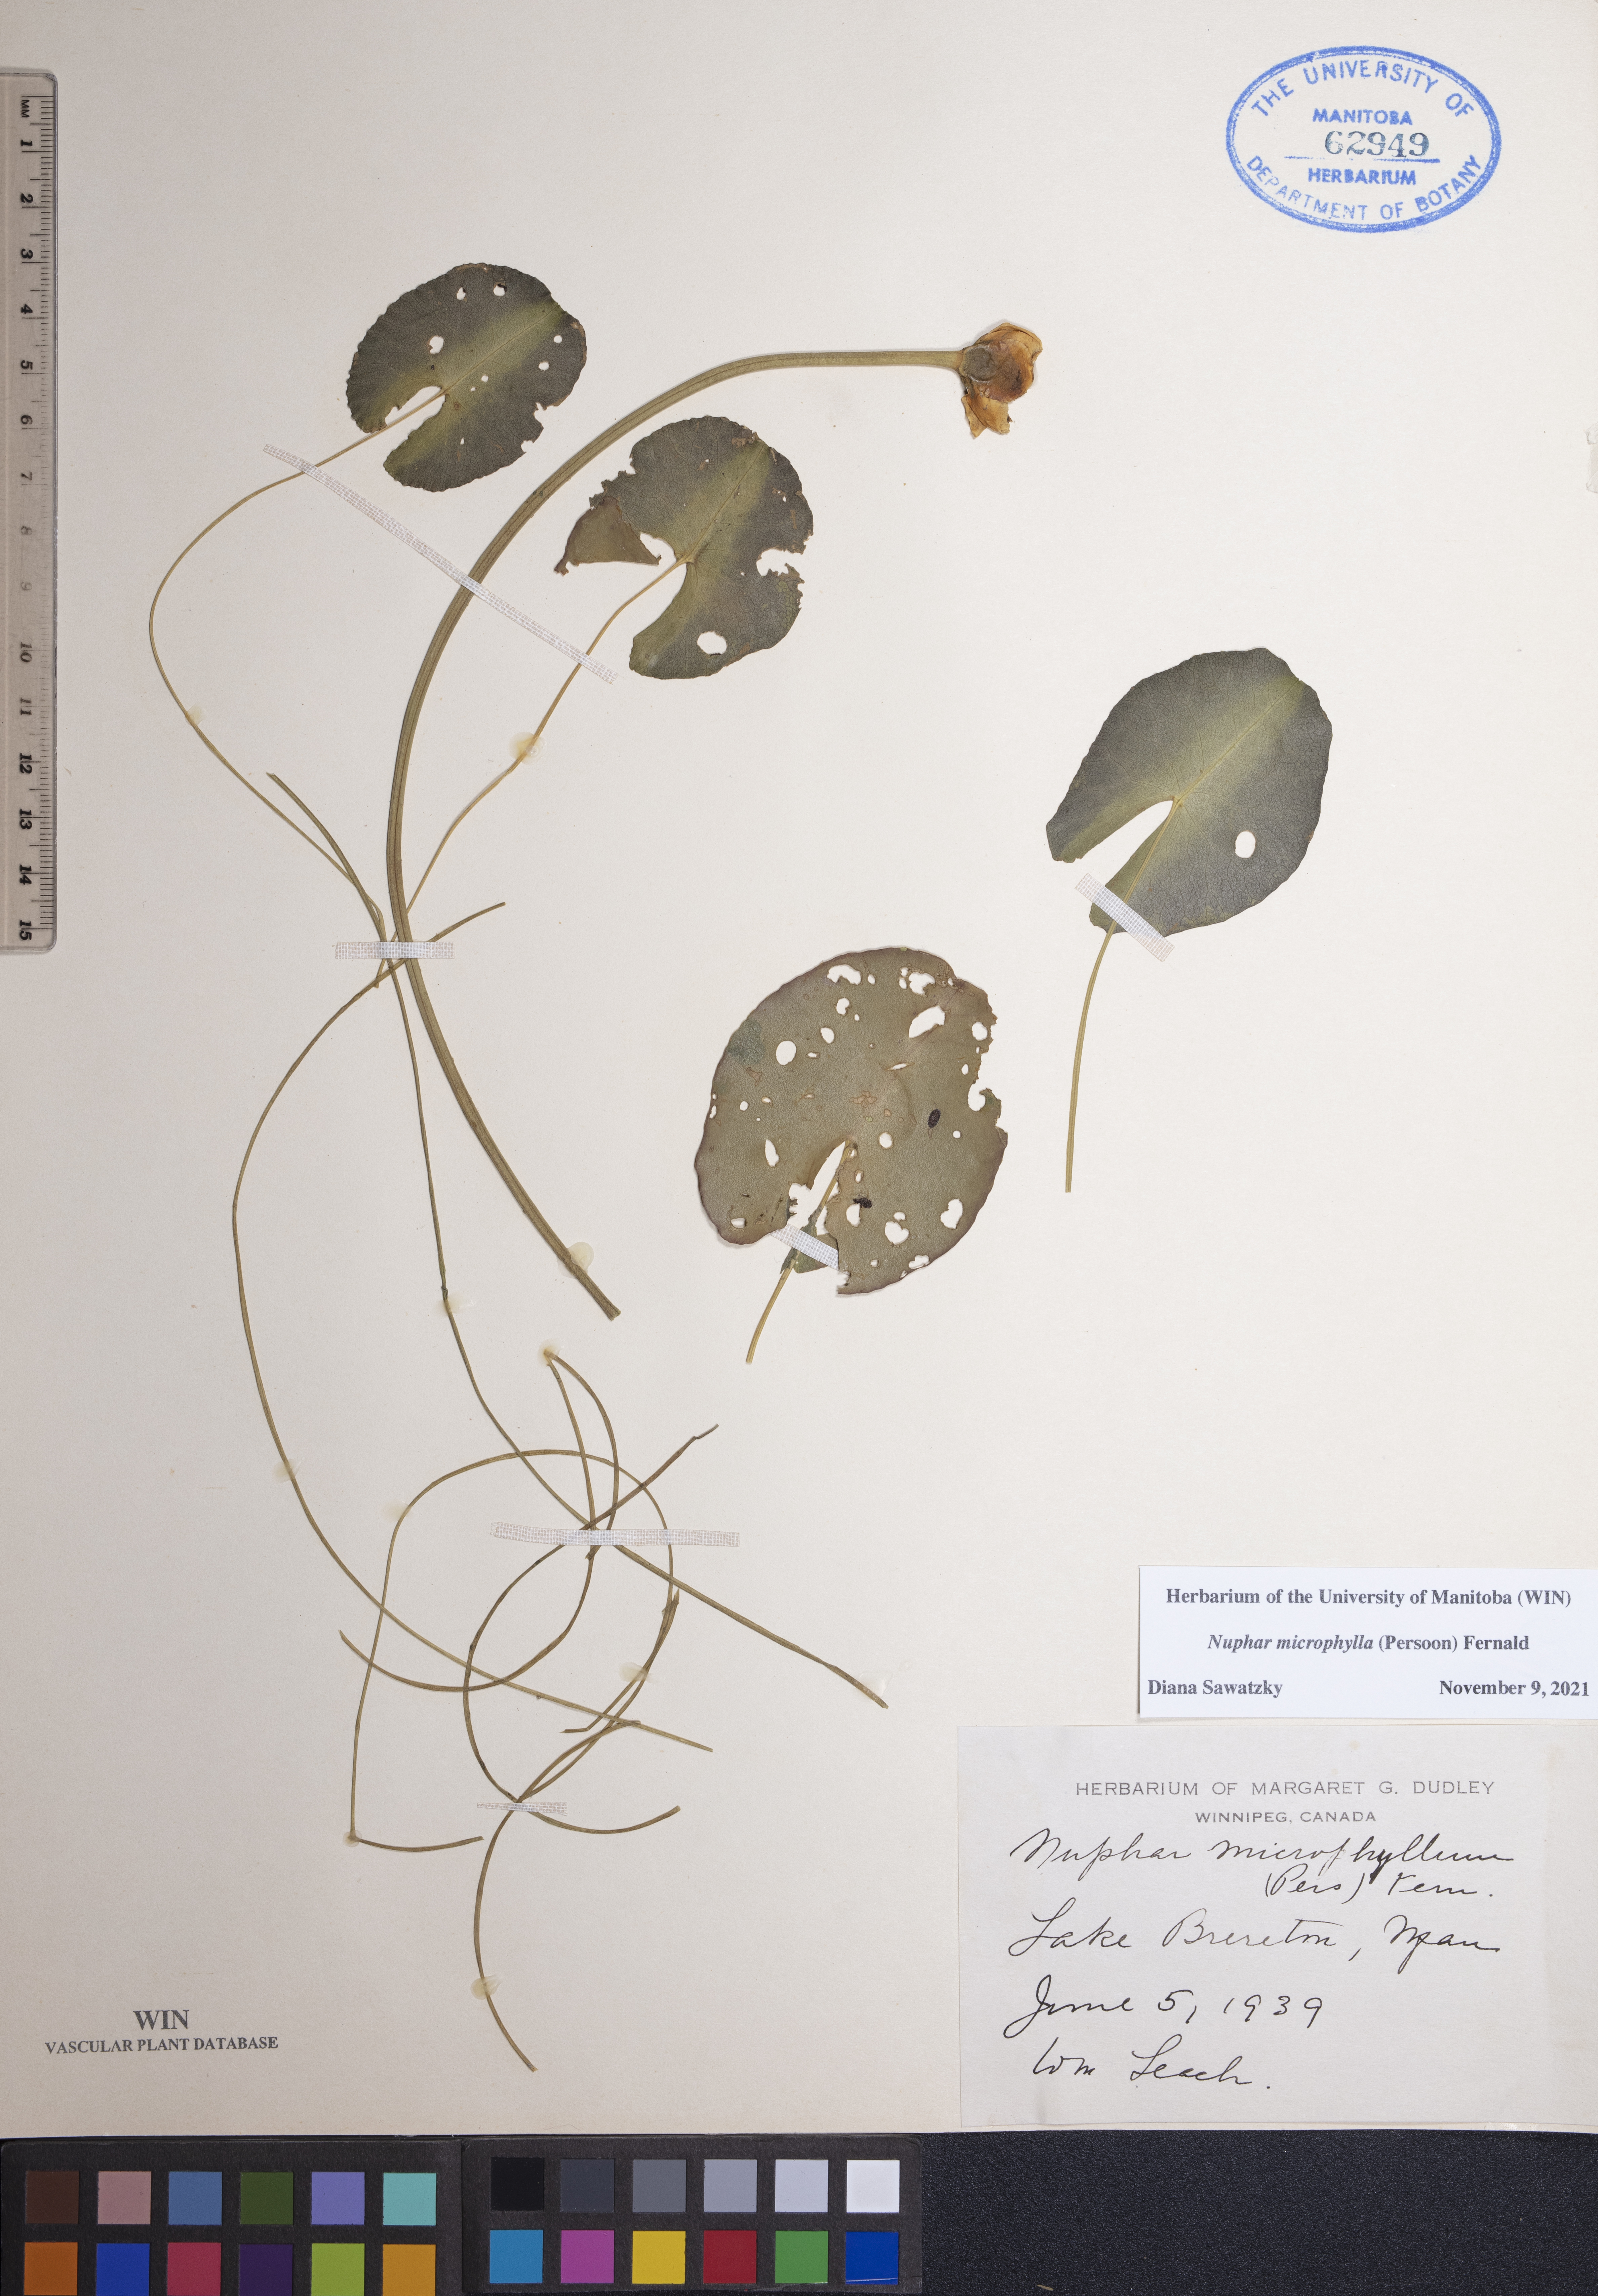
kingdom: Plantae
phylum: Tracheophyta
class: Magnoliopsida
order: Nymphaeales
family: Nymphaeaceae
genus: Nuphar
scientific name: Nuphar microphylla
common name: Small pond-lily
